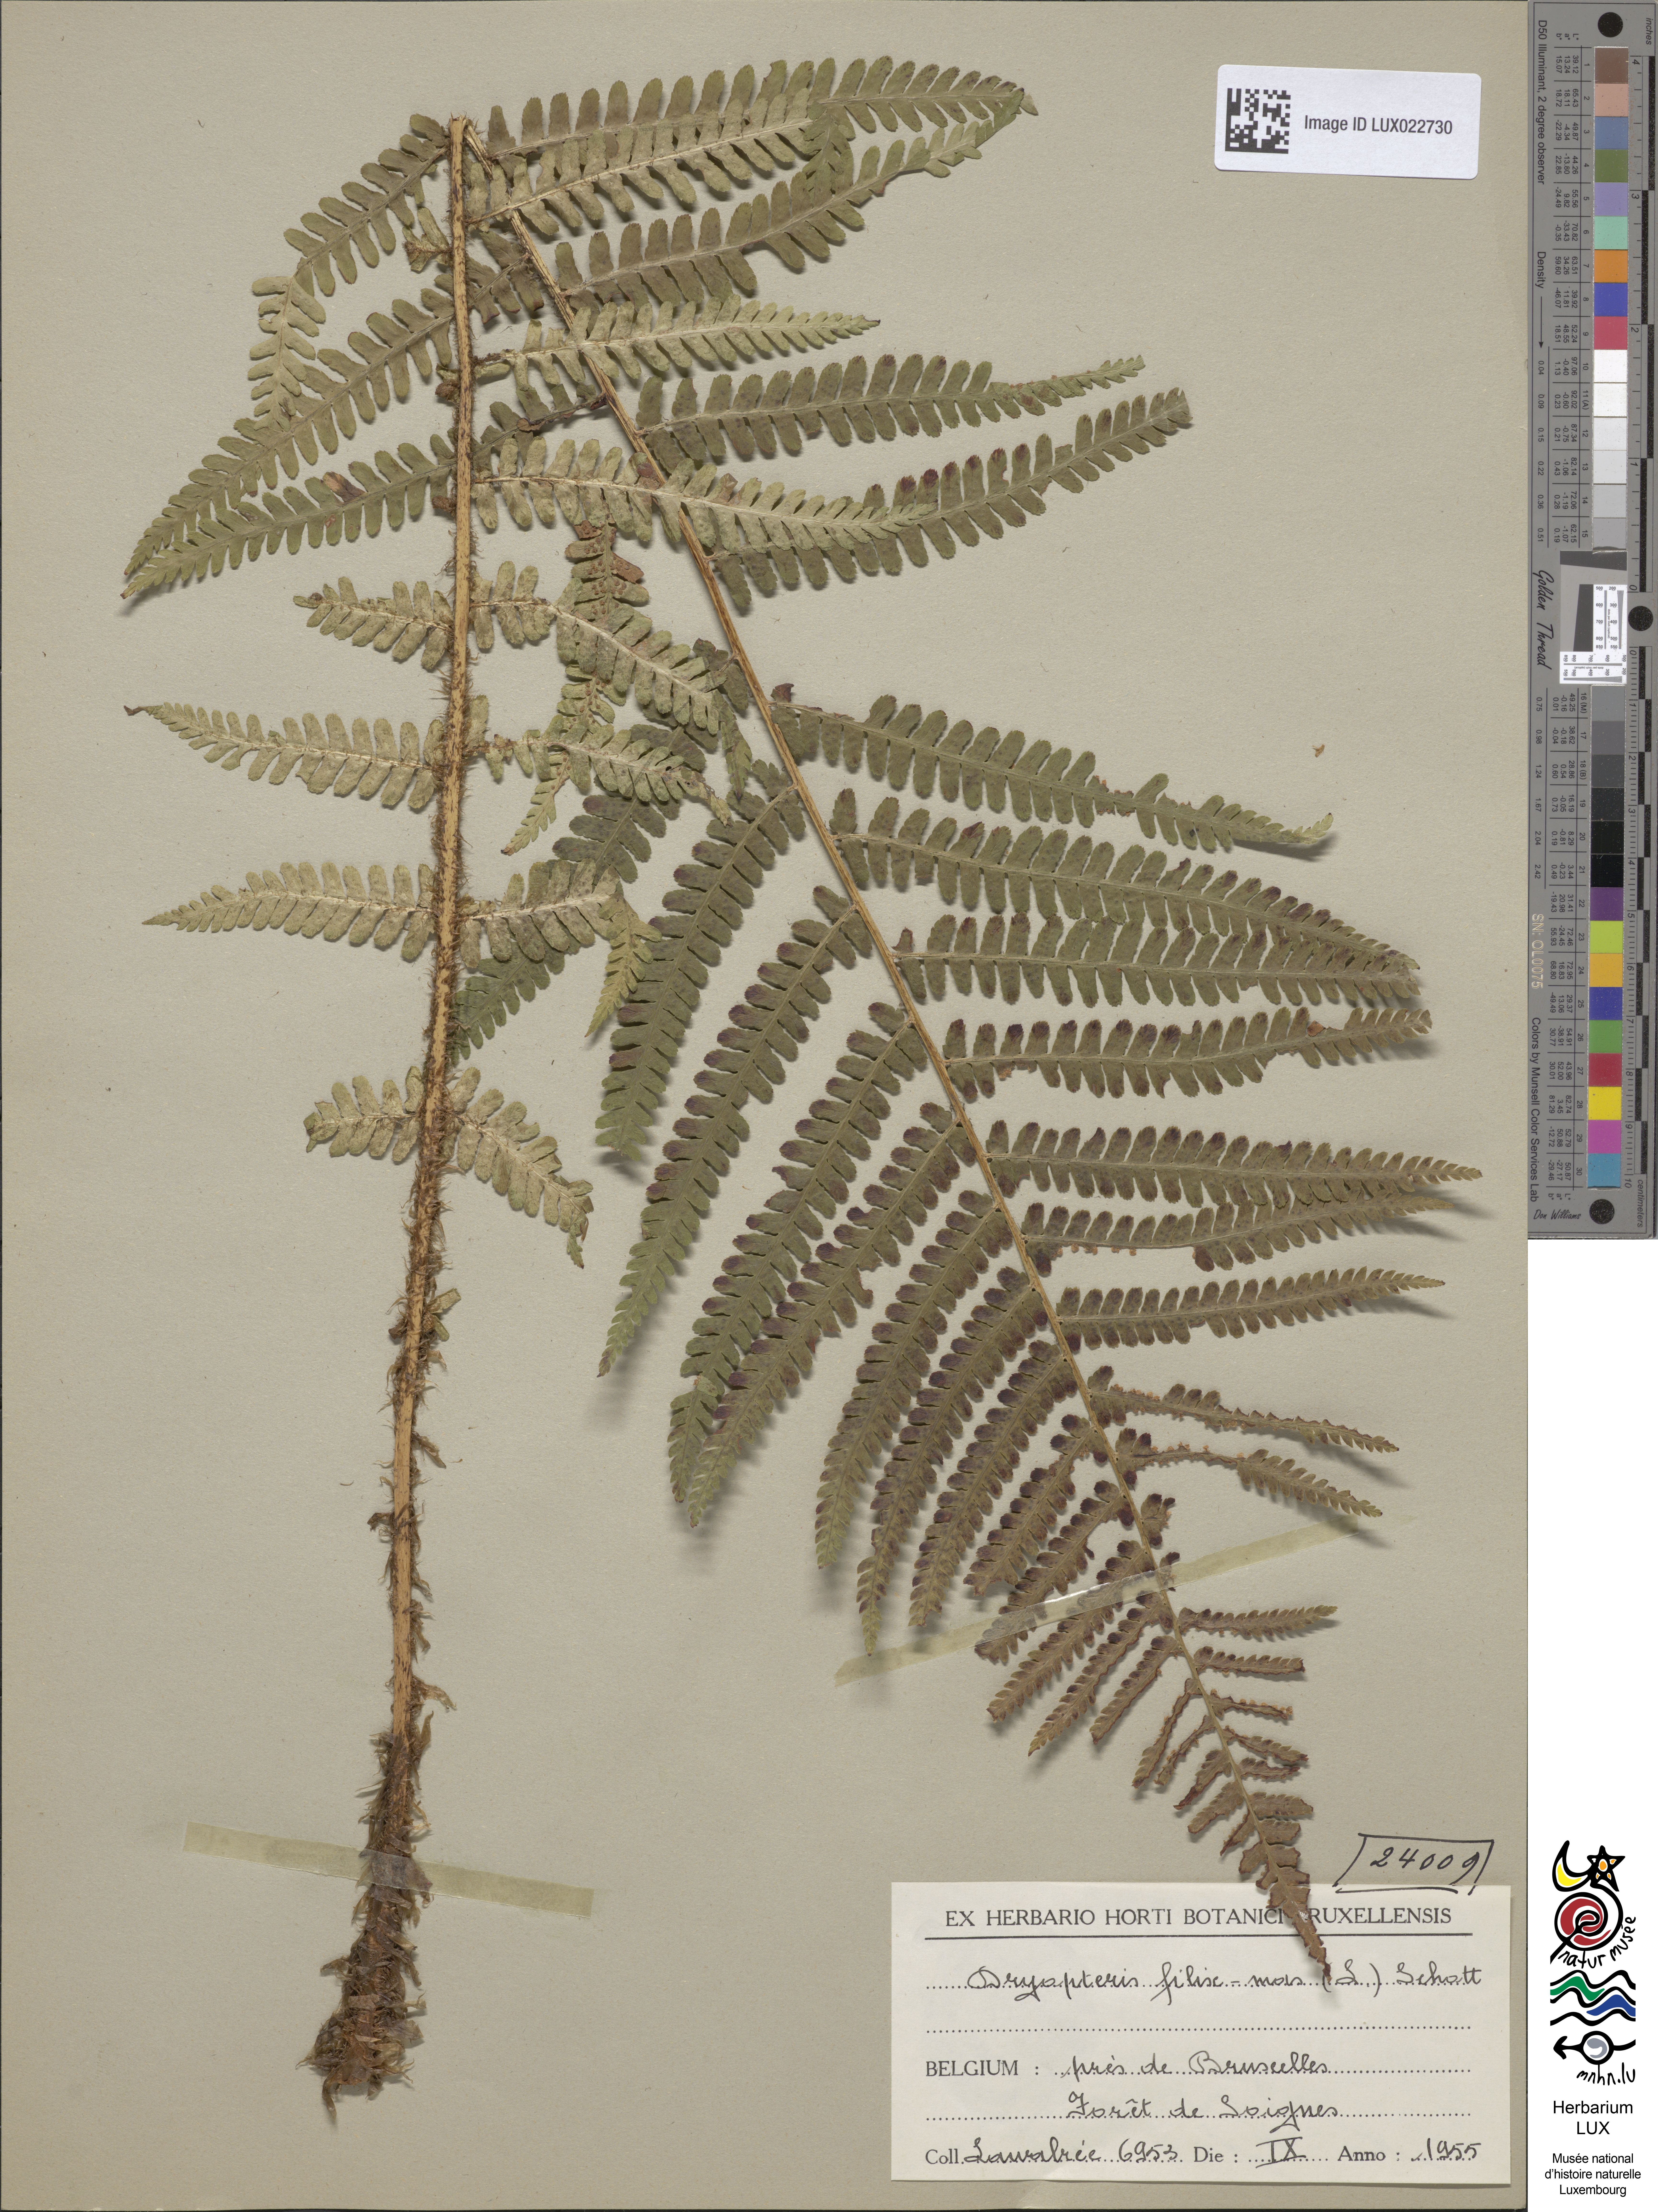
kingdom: Plantae
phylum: Tracheophyta
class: Polypodiopsida
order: Polypodiales
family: Dryopteridaceae
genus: Dryopteris
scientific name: Dryopteris filix-mas
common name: Male fern
